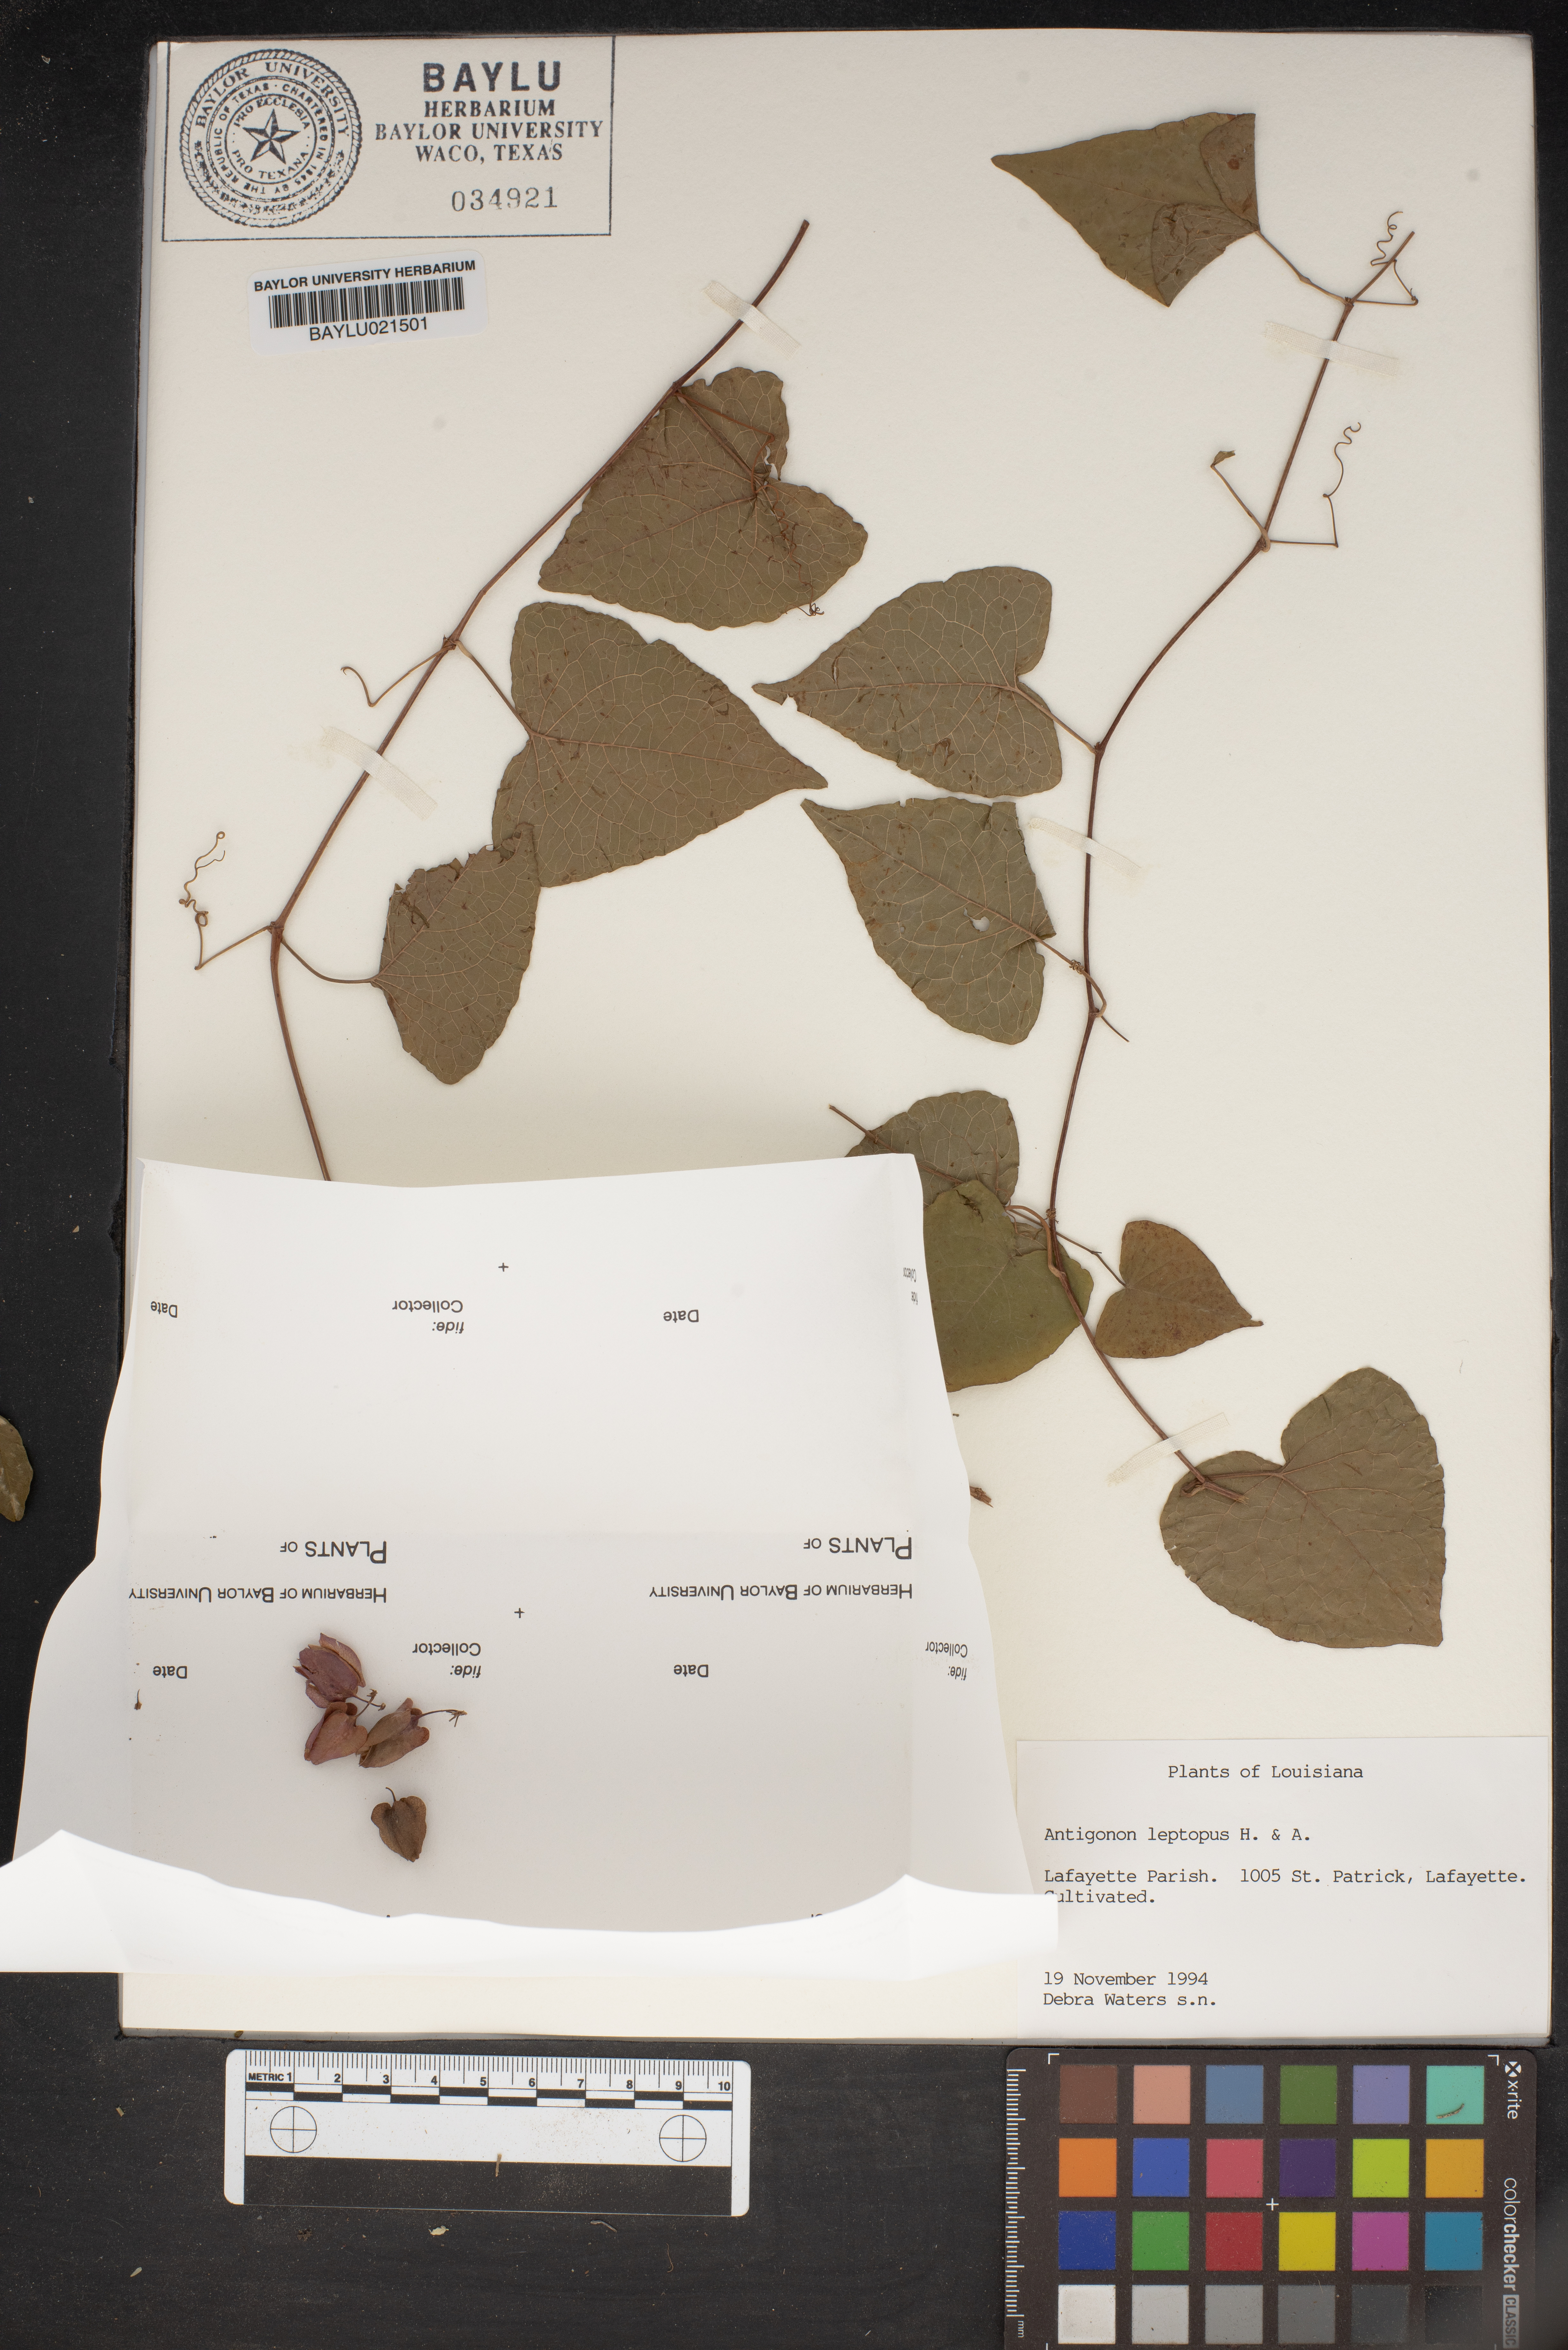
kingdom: Plantae
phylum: Tracheophyta
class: Magnoliopsida
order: Caryophyllales
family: Polygonaceae
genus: Antigonon
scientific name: Antigonon leptopus
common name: Coral vine
